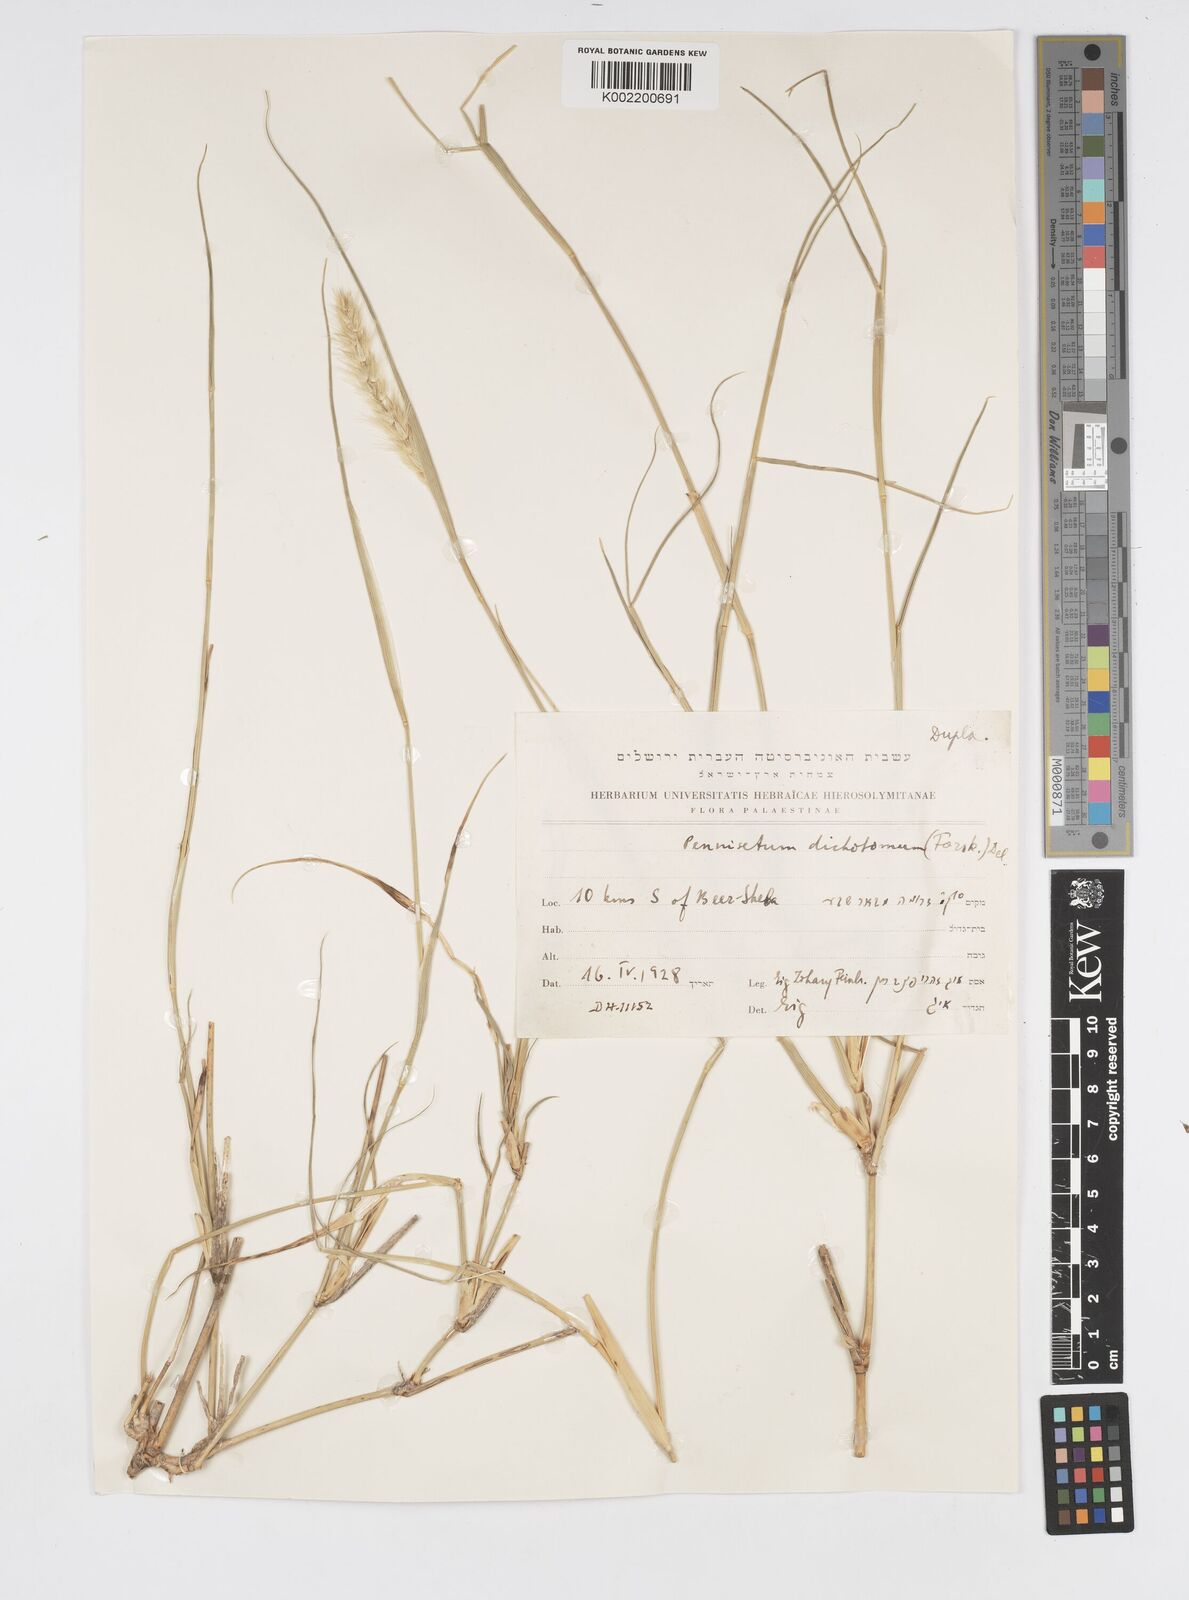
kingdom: Plantae
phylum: Tracheophyta
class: Liliopsida
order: Poales
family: Poaceae
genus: Cenchrus
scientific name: Cenchrus divisus
